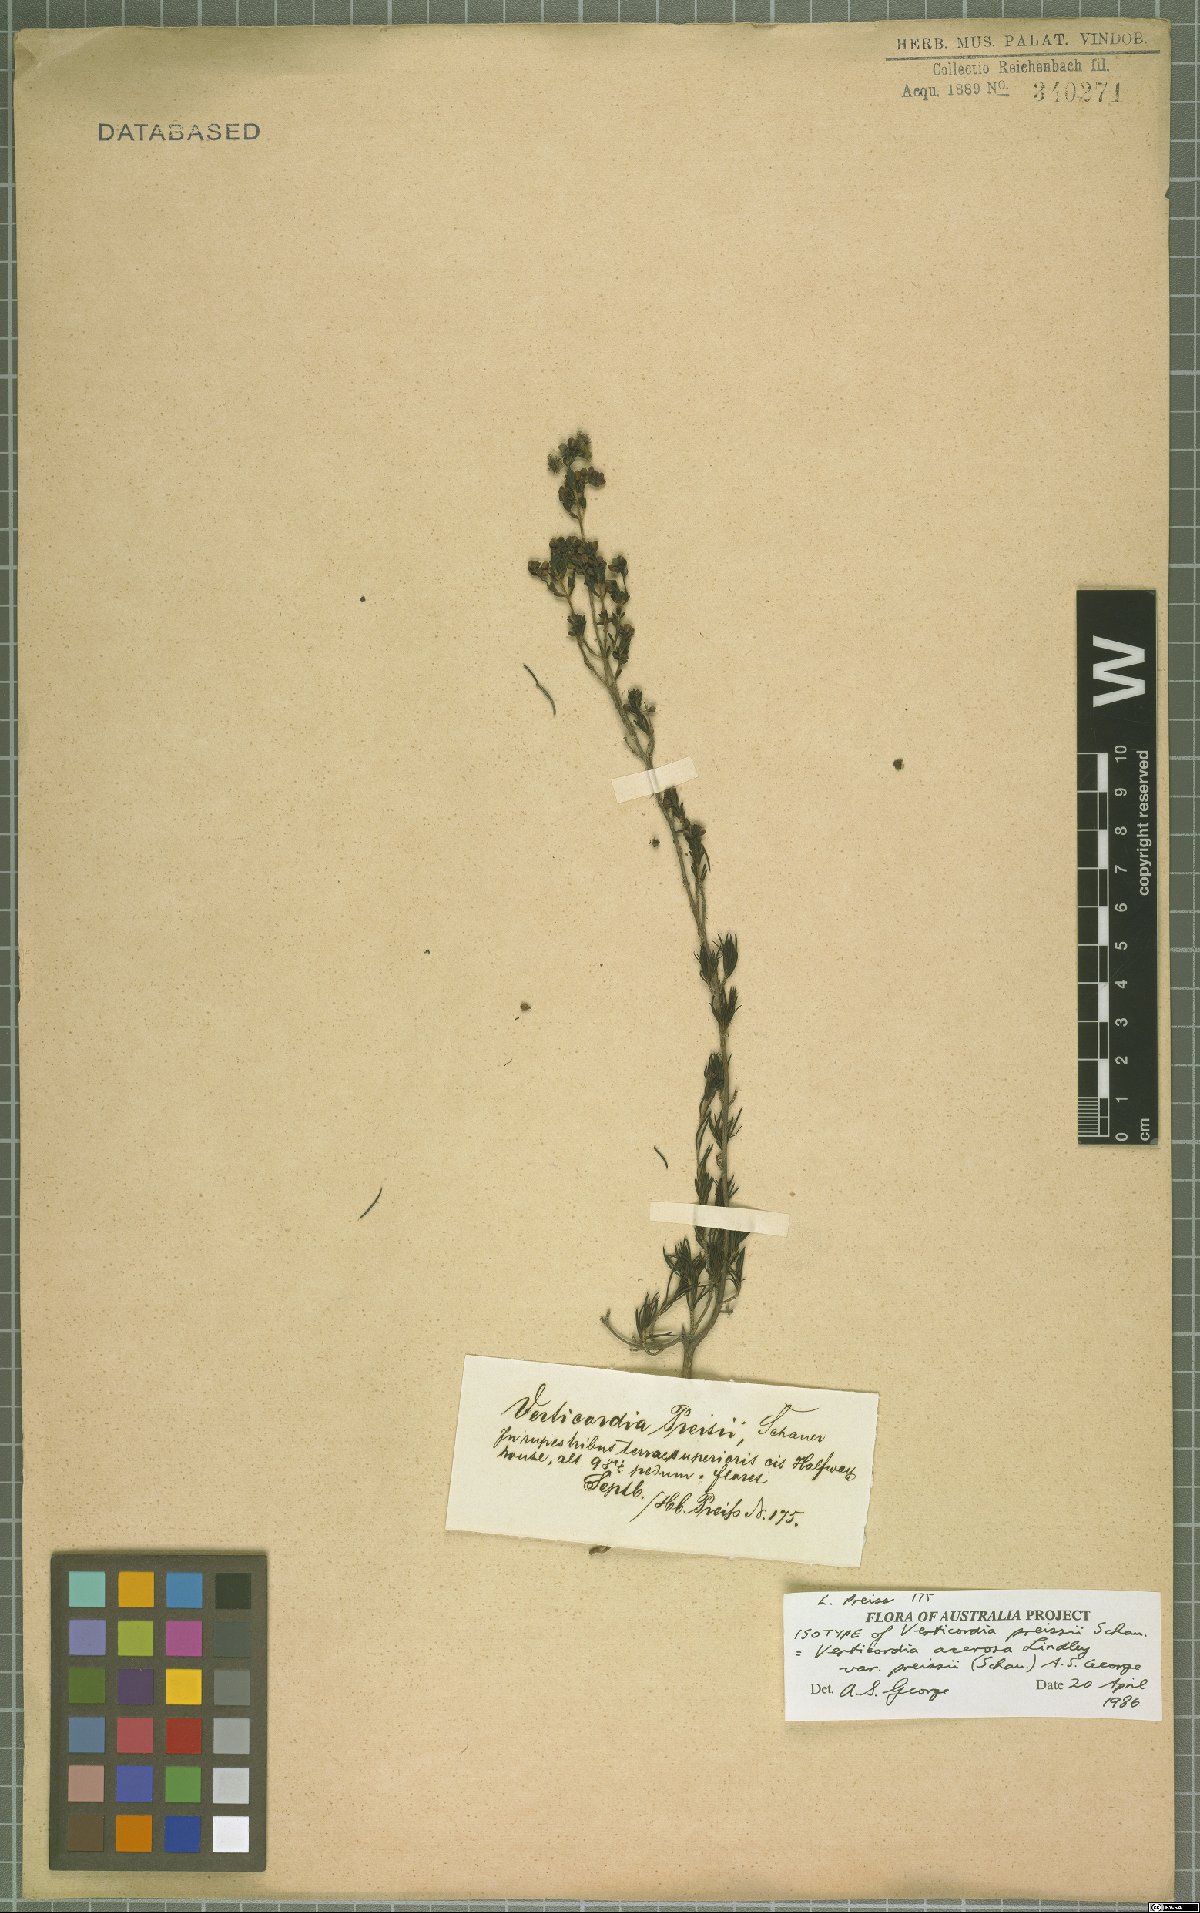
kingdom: Plantae
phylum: Tracheophyta
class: Magnoliopsida
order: Myrtales
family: Myrtaceae
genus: Verticordia
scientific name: Verticordia acerosa
